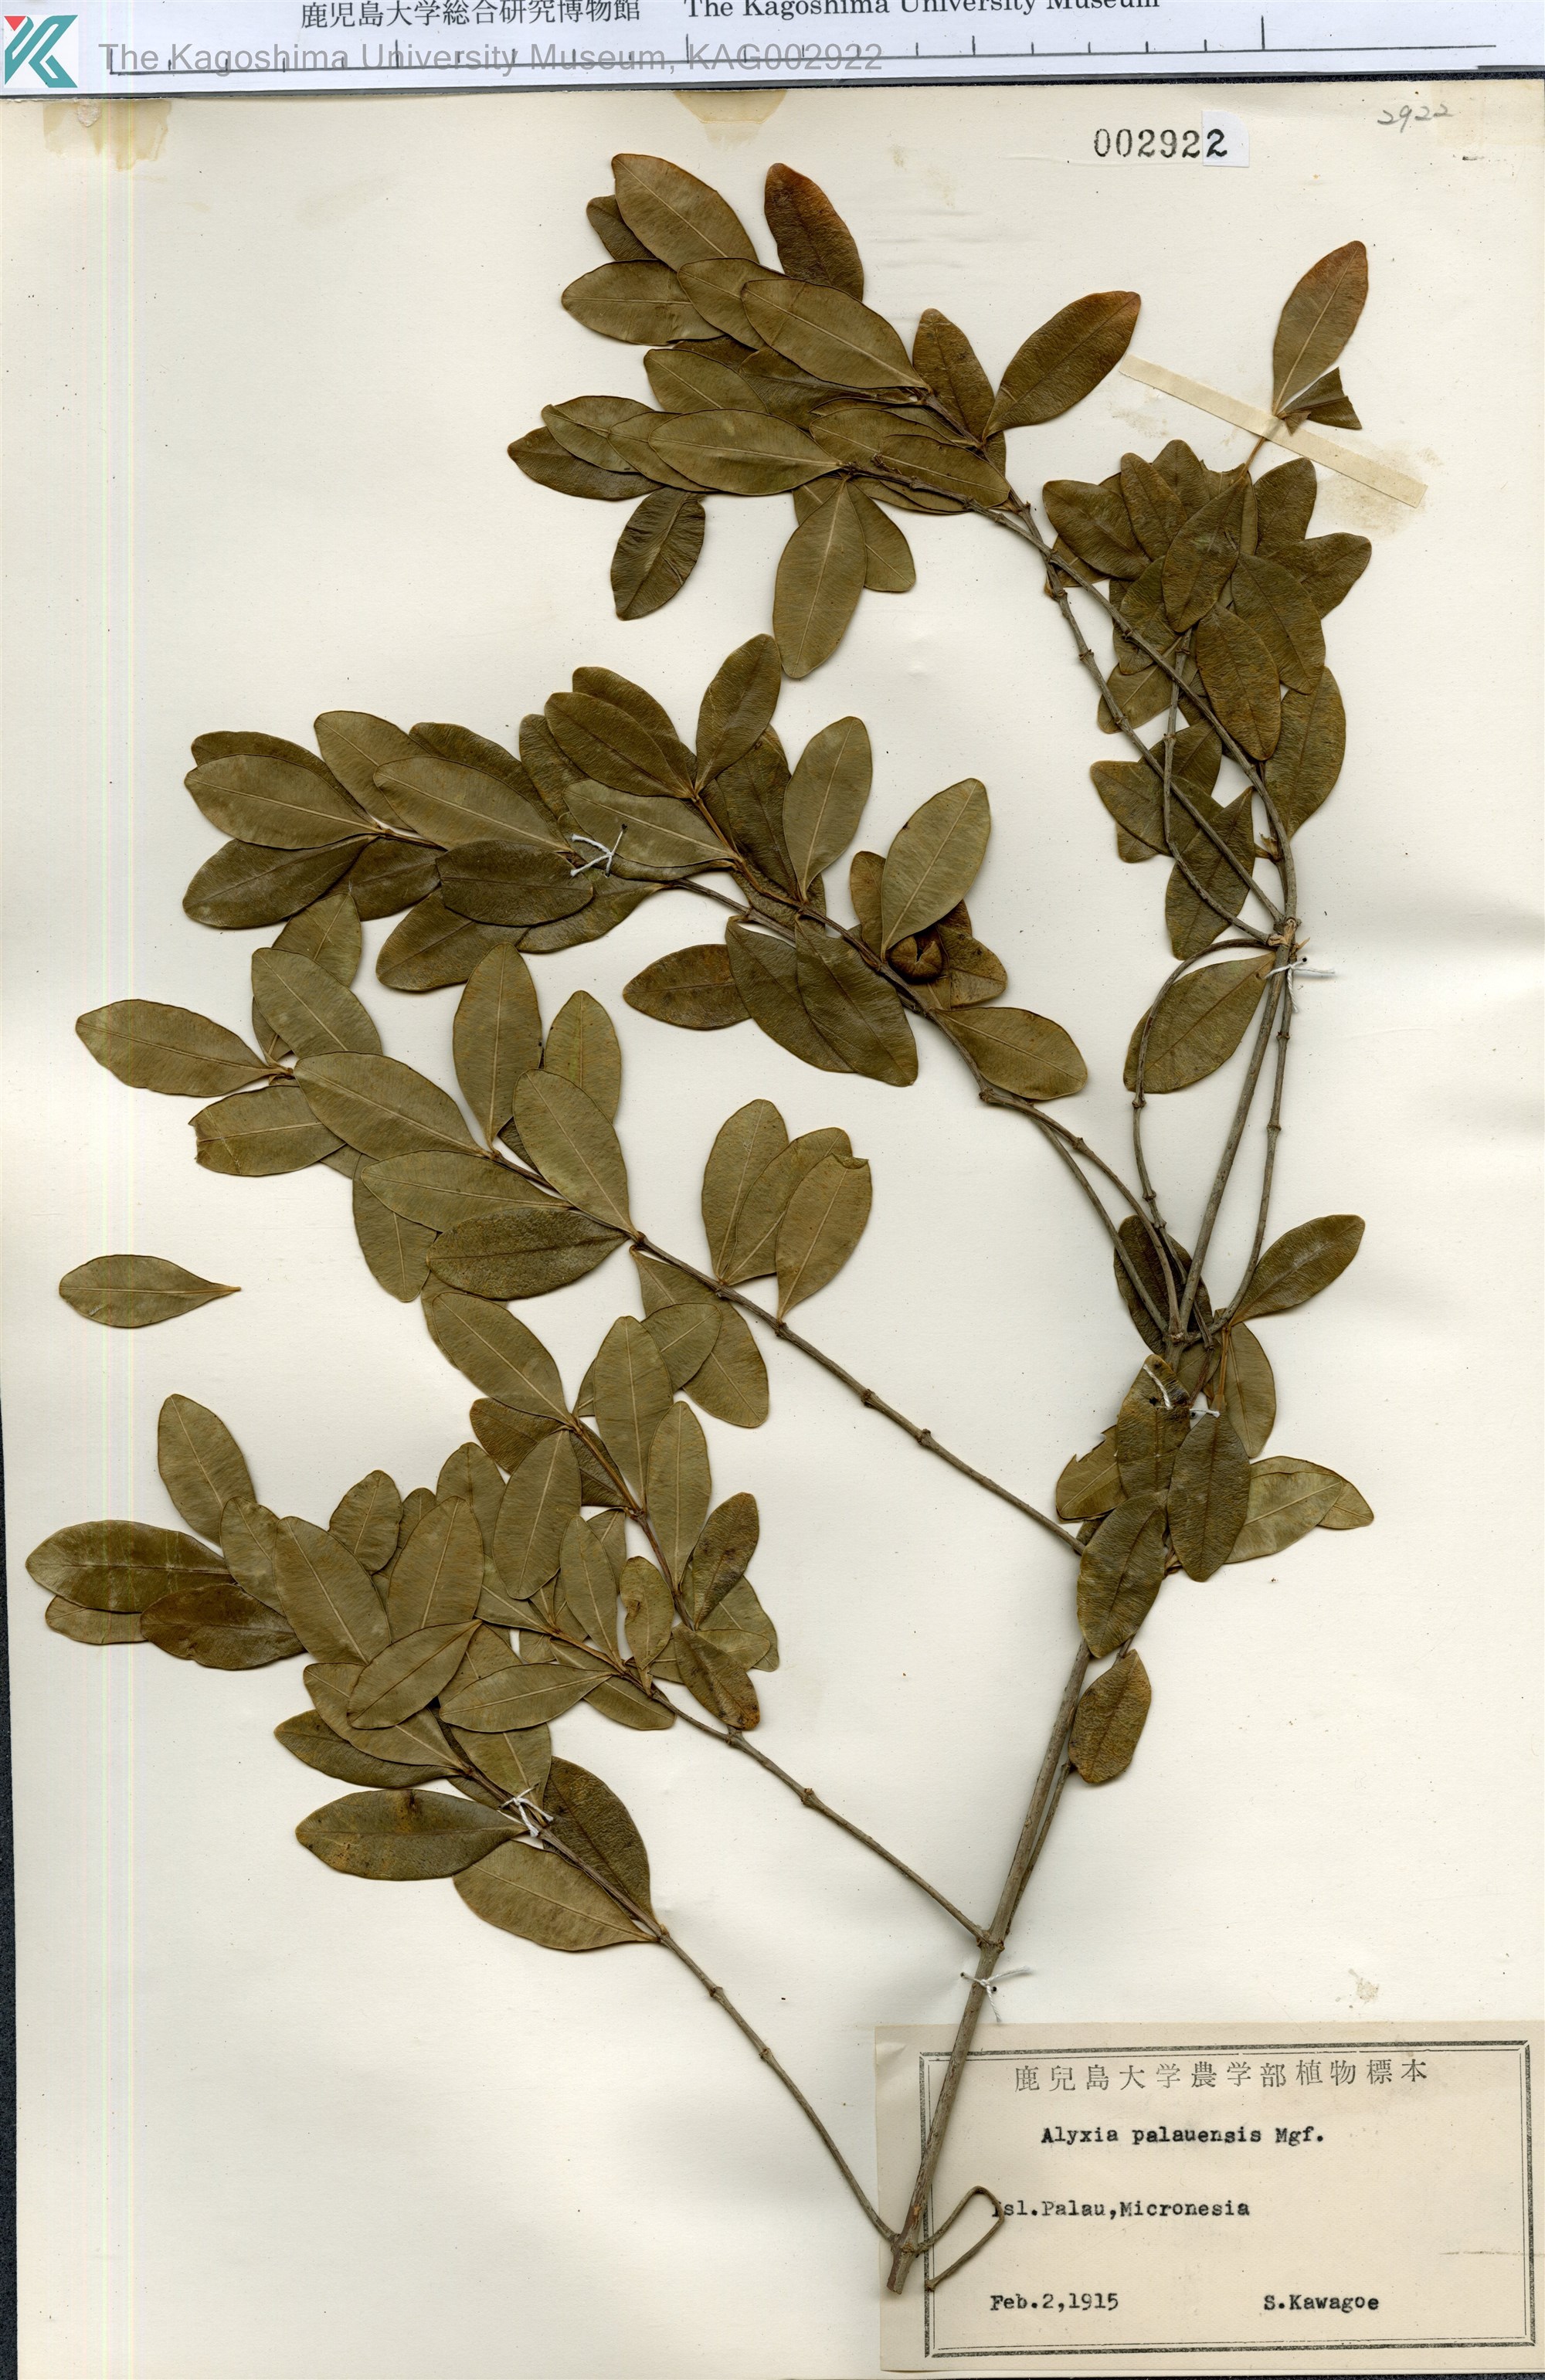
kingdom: Plantae
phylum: Tracheophyta
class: Magnoliopsida
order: Gentianales
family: Apocynaceae
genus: Alyxia
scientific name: Alyxia stellata
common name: Maile
